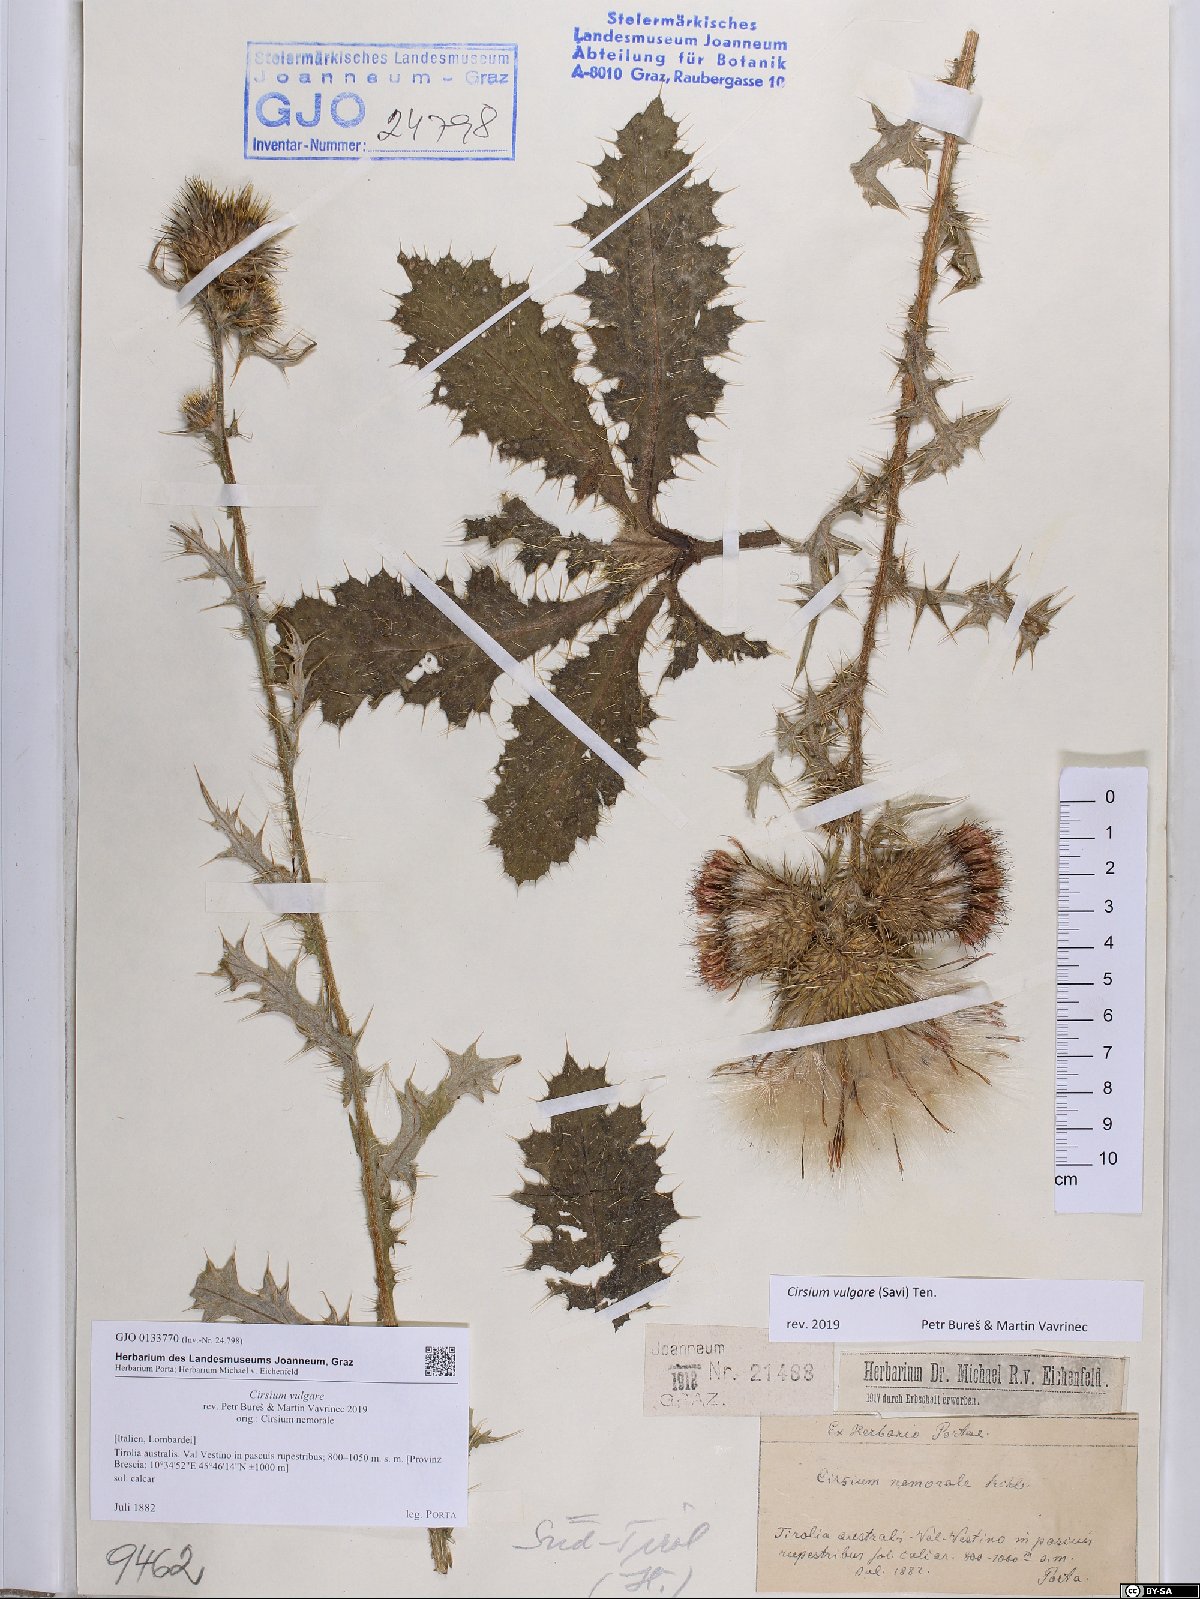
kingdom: Plantae
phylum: Tracheophyta
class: Magnoliopsida
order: Asterales
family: Asteraceae
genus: Cirsium
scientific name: Cirsium vulgare
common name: Bull thistle
